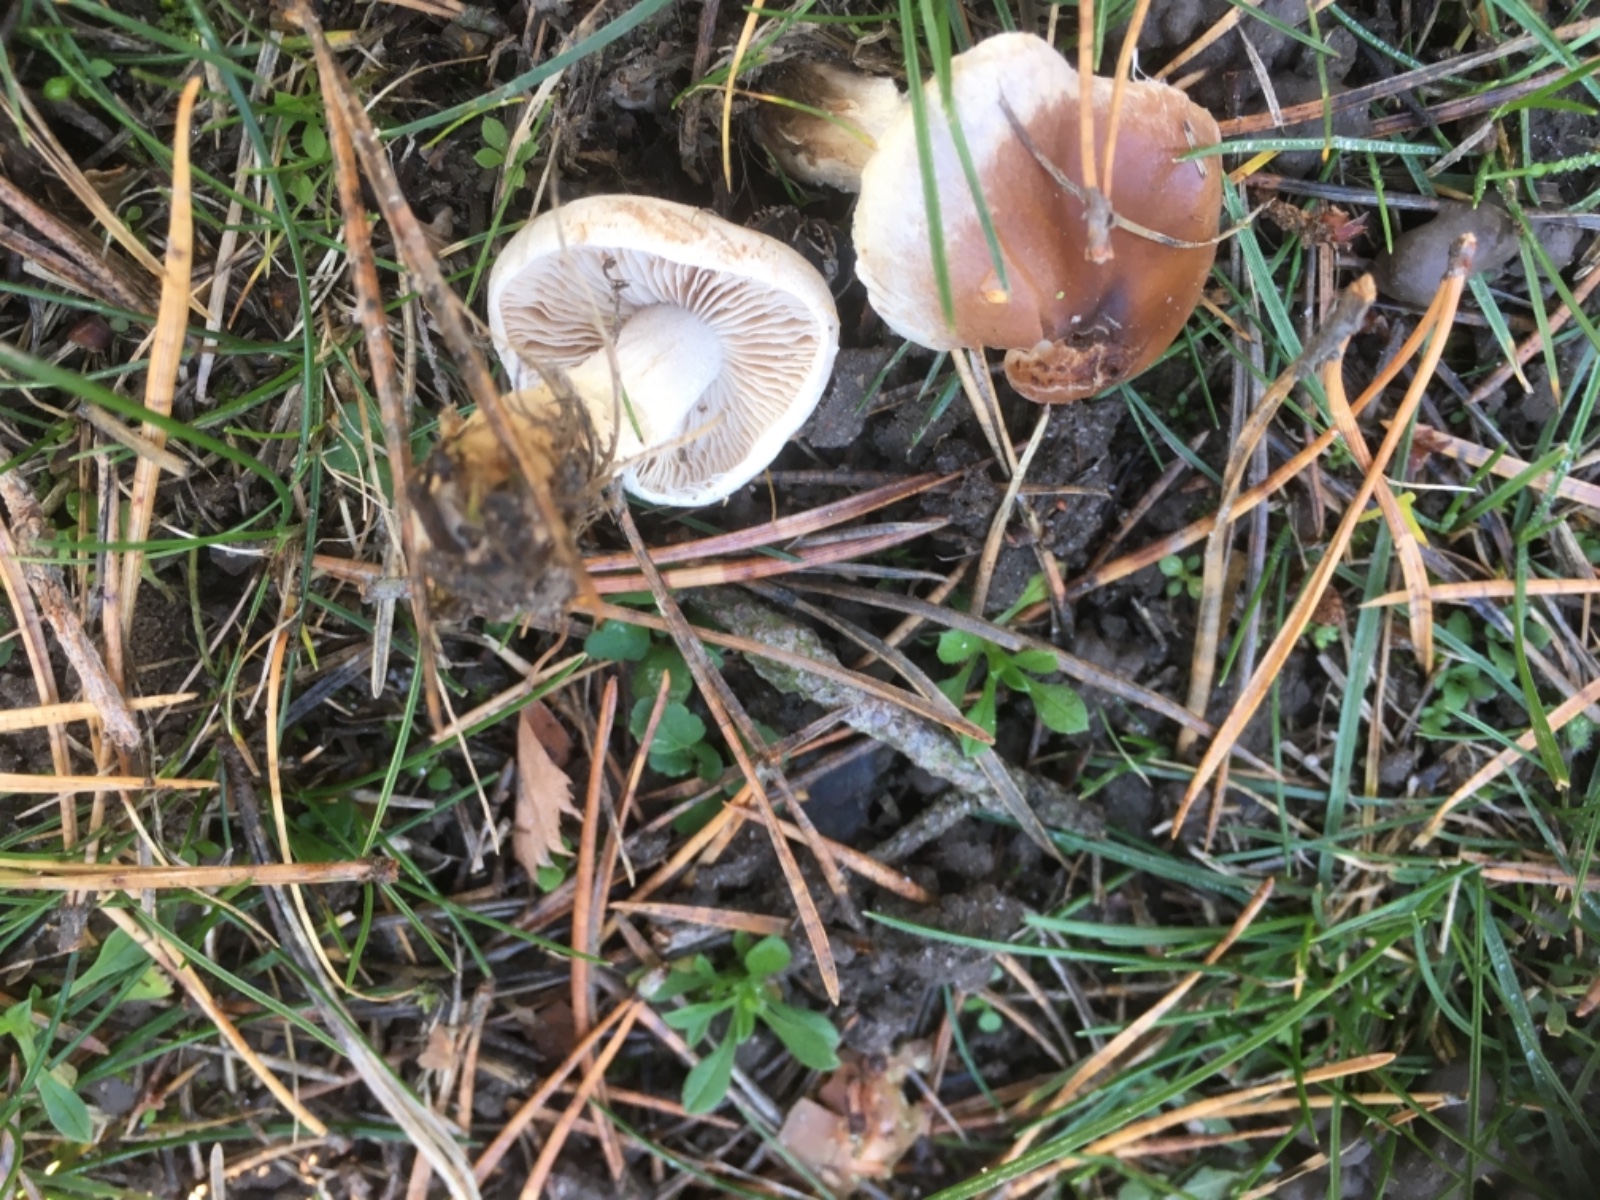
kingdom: Fungi
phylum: Basidiomycota
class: Agaricomycetes
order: Agaricales
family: Hymenogastraceae
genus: Hebeloma
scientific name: Hebeloma
